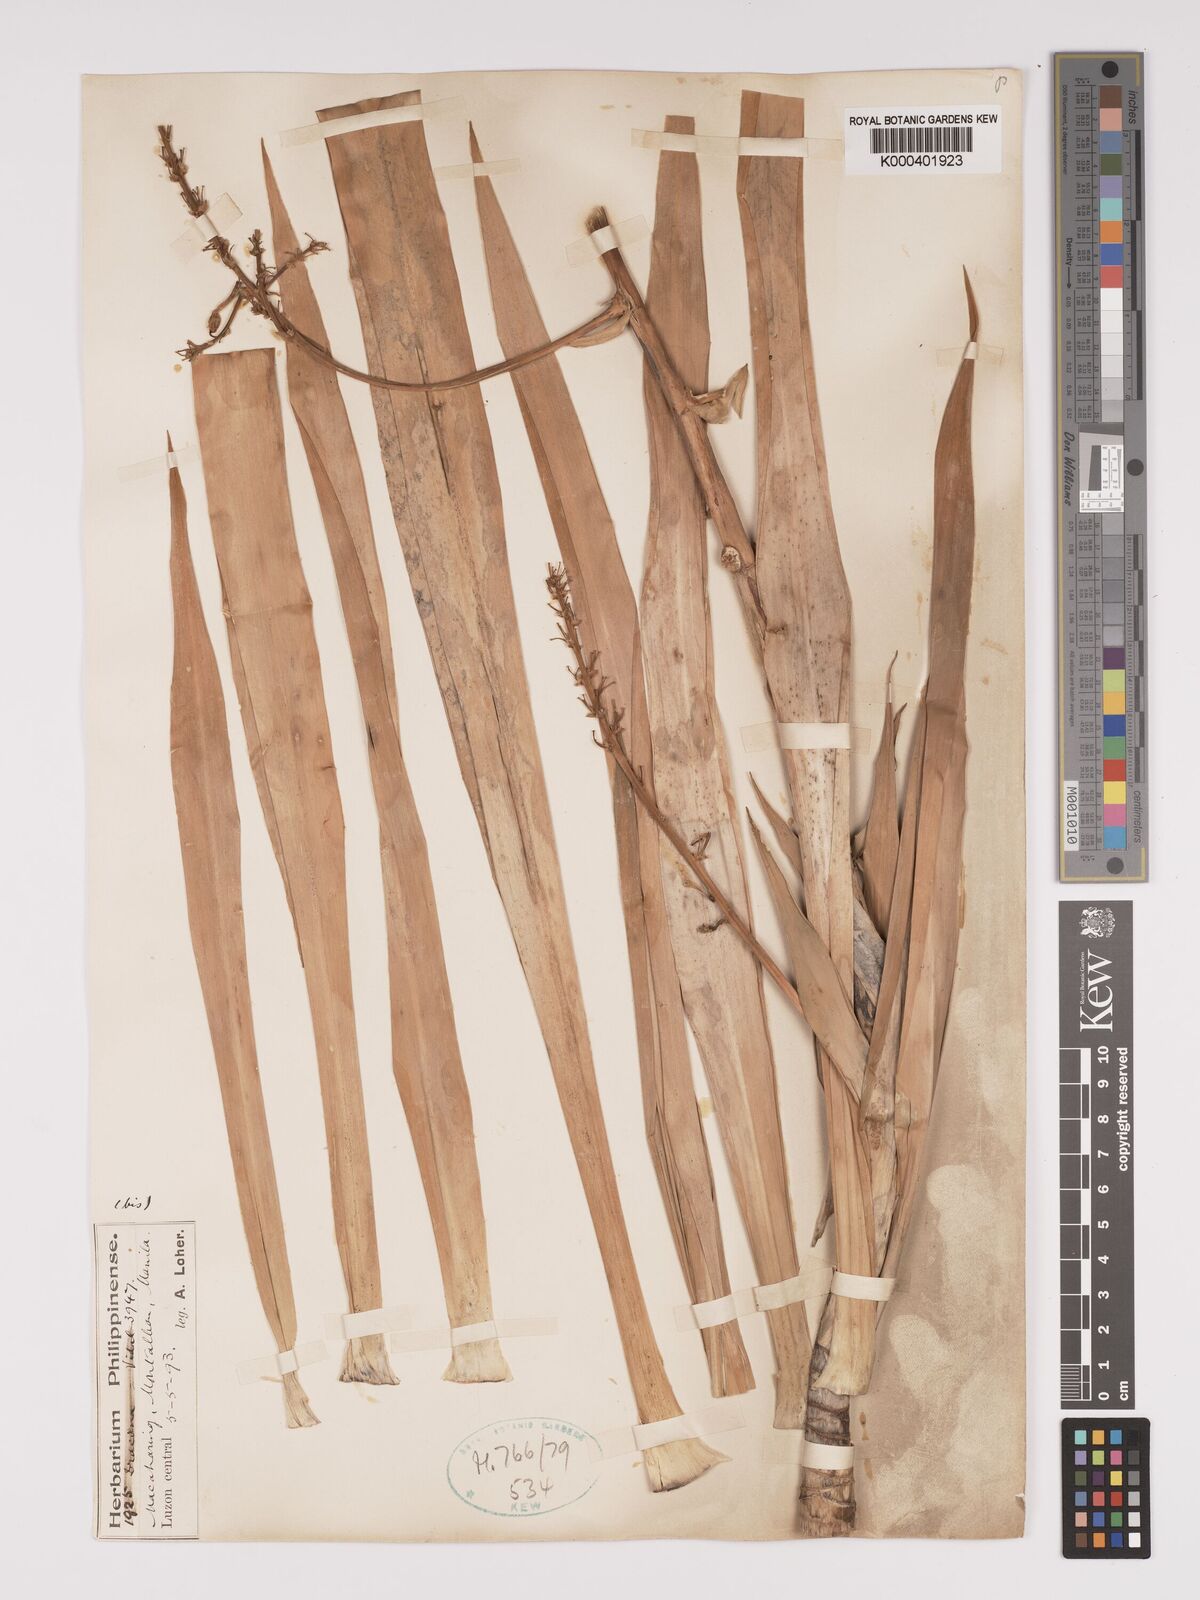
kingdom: Plantae
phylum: Tracheophyta
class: Liliopsida
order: Asparagales
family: Asparagaceae
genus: Dracaena
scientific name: Dracaena
